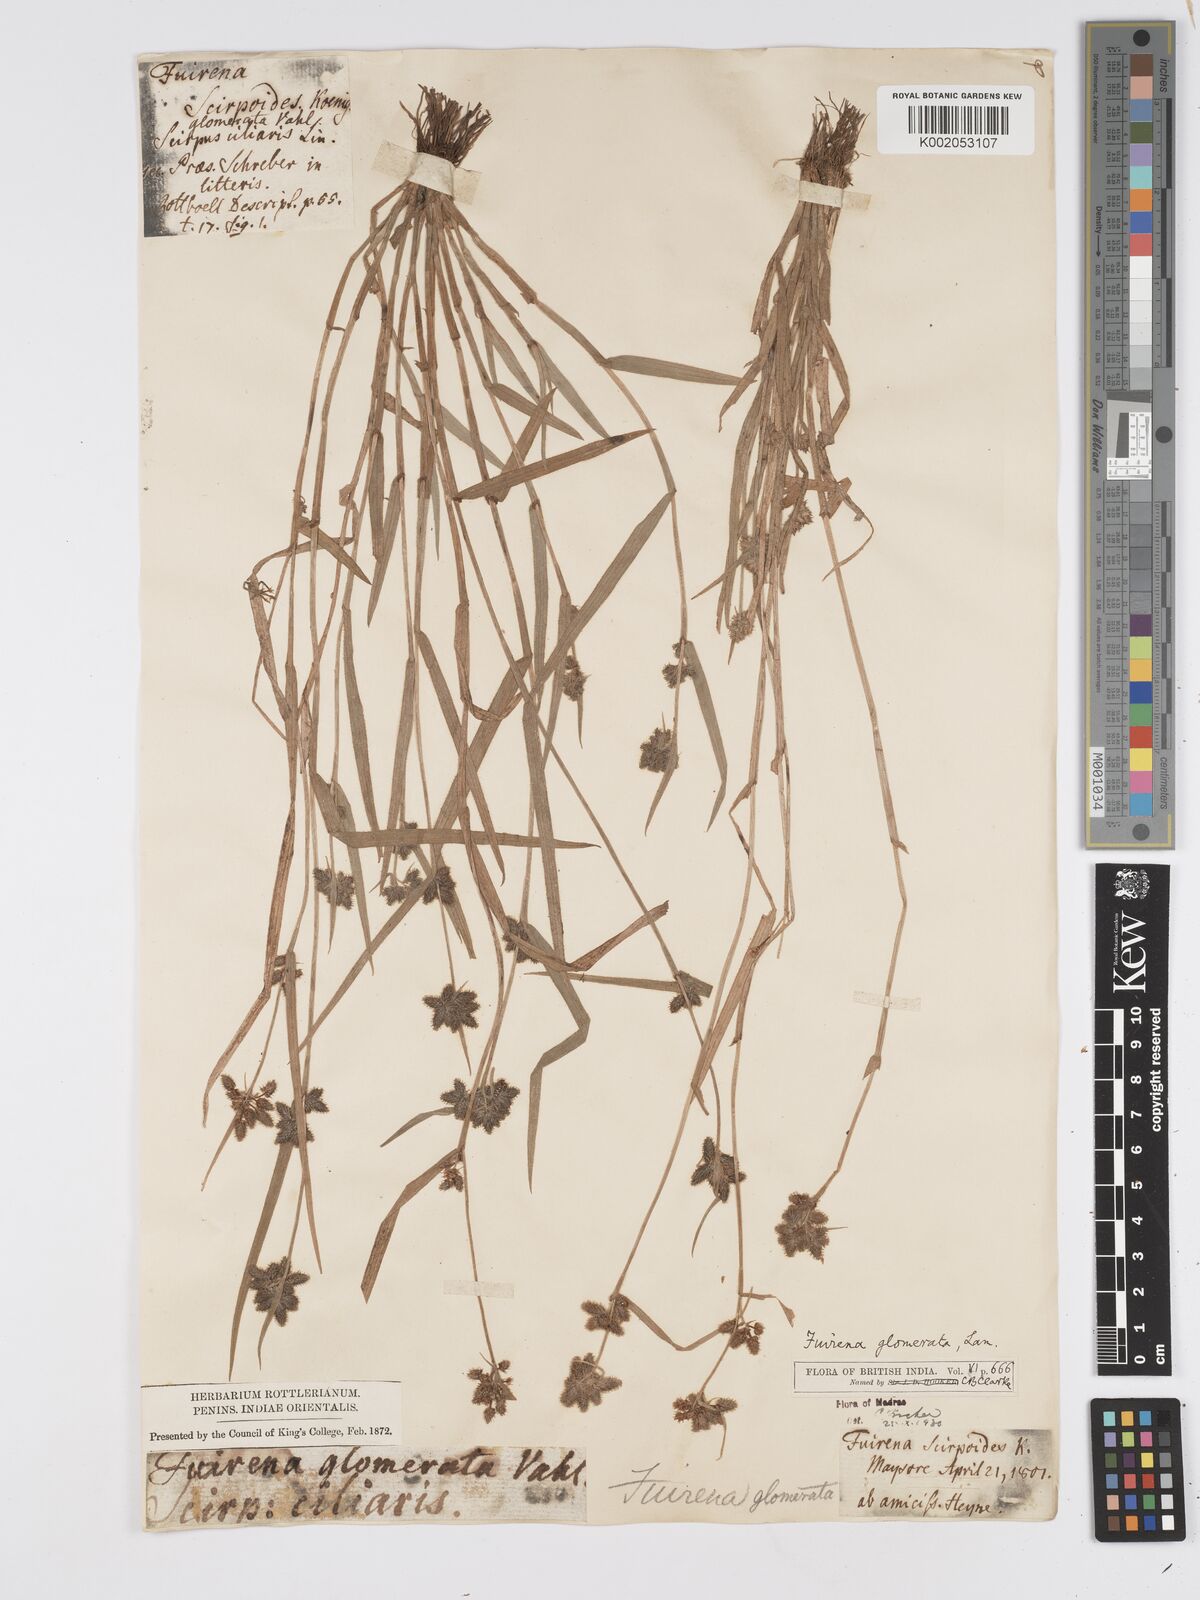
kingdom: Plantae
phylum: Tracheophyta
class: Liliopsida
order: Poales
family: Cyperaceae
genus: Fuirena
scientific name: Fuirena ciliaris
